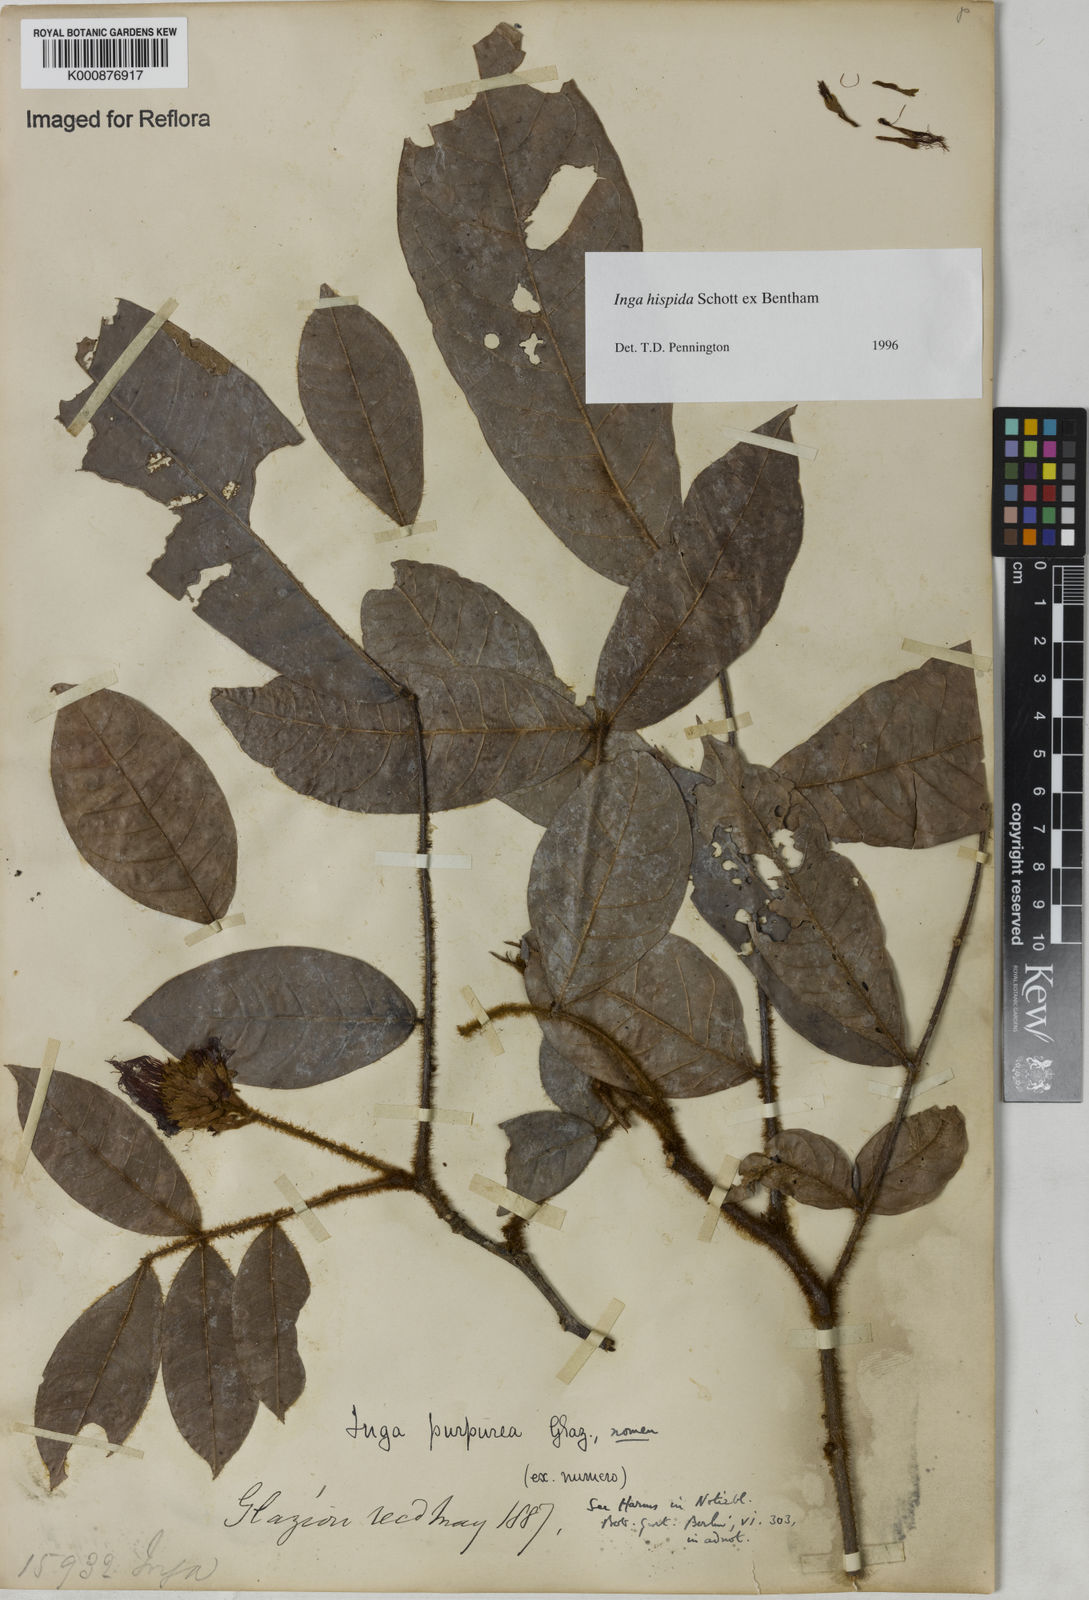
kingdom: Plantae
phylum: Tracheophyta
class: Magnoliopsida
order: Fabales
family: Fabaceae
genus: Inga
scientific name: Inga hispida
